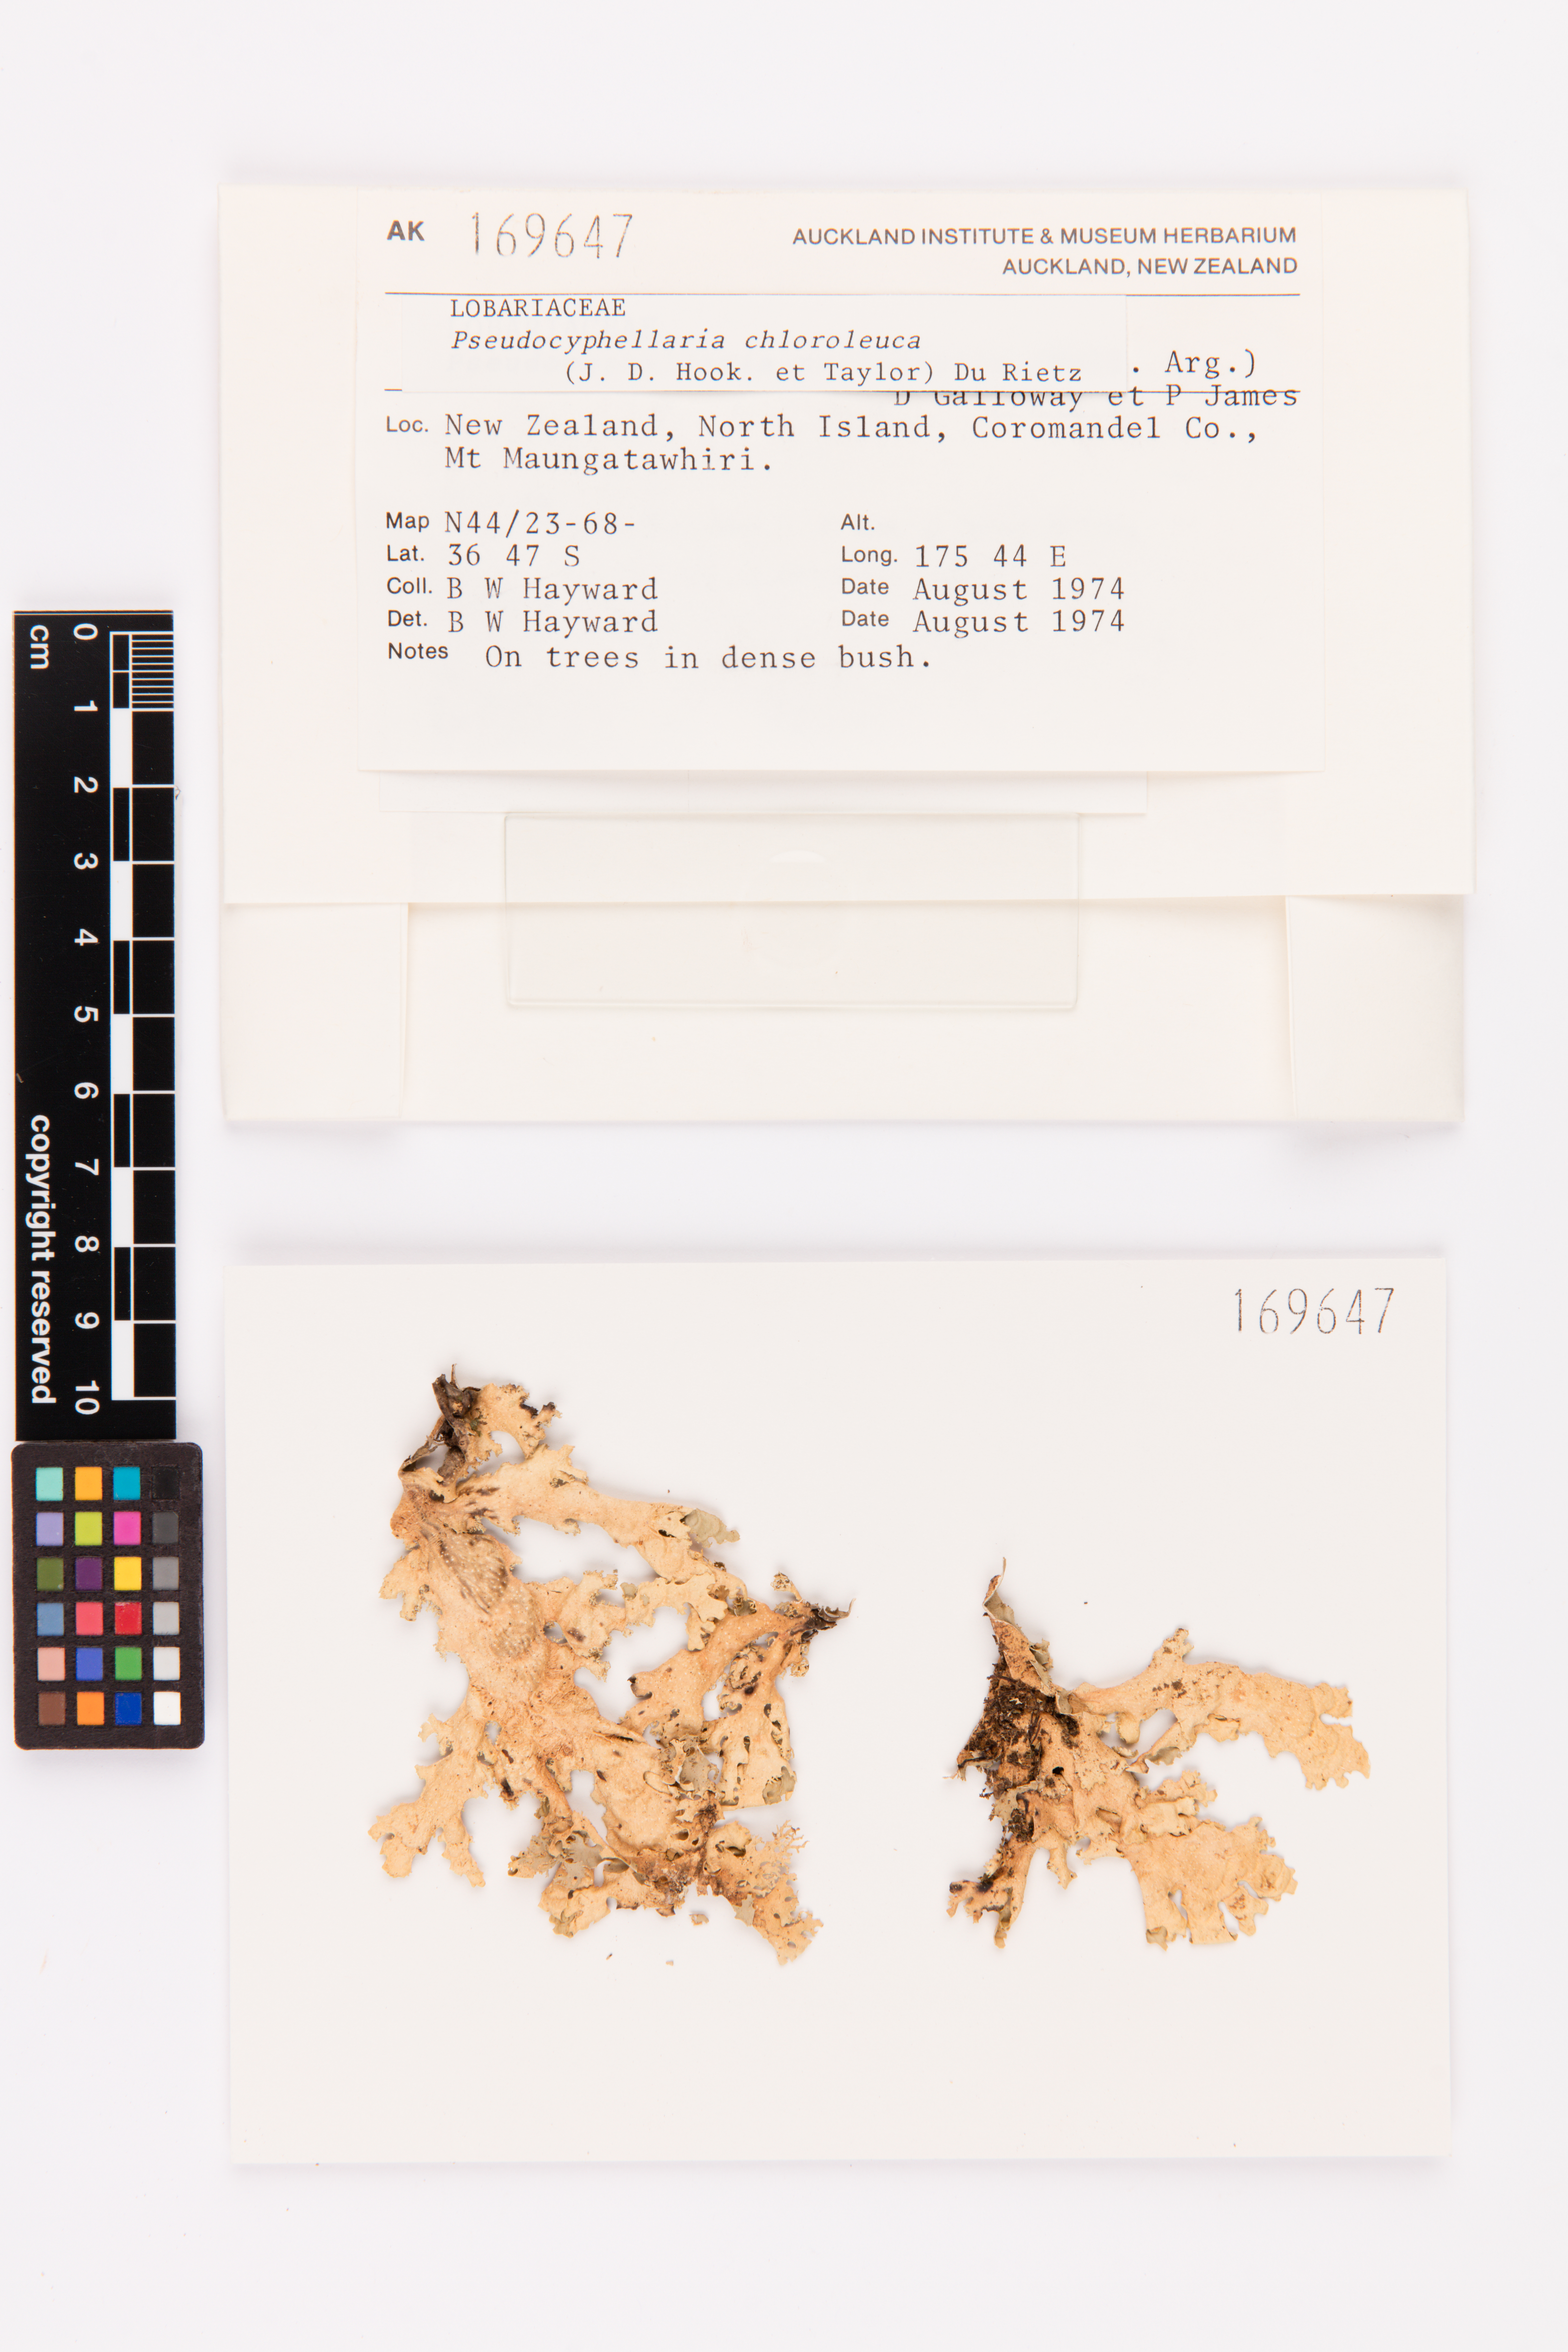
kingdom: Fungi
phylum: Ascomycota
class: Lecanoromycetes
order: Peltigerales
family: Lobariaceae
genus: Pseudocyphellaria
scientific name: Pseudocyphellaria chloroleuca
